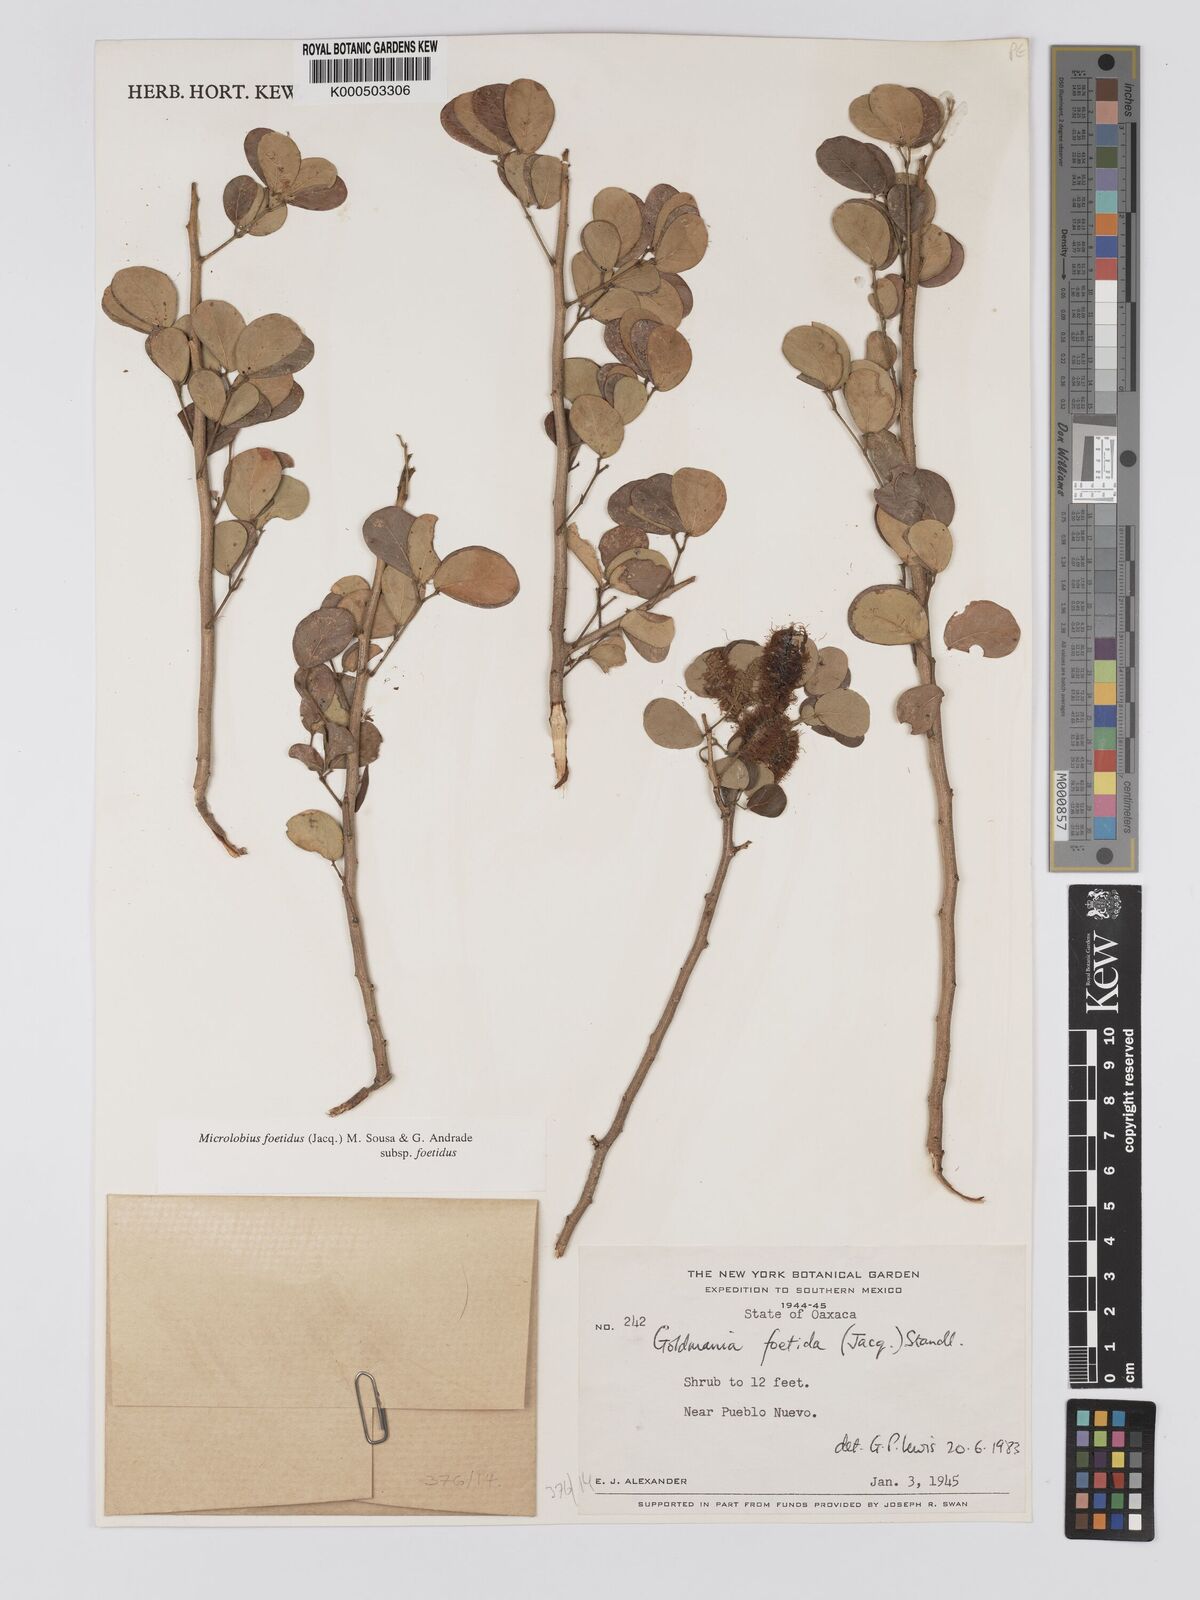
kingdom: Plantae
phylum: Tracheophyta
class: Magnoliopsida
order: Fabales
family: Fabaceae
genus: Microlobius
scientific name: Microlobius foetidus
